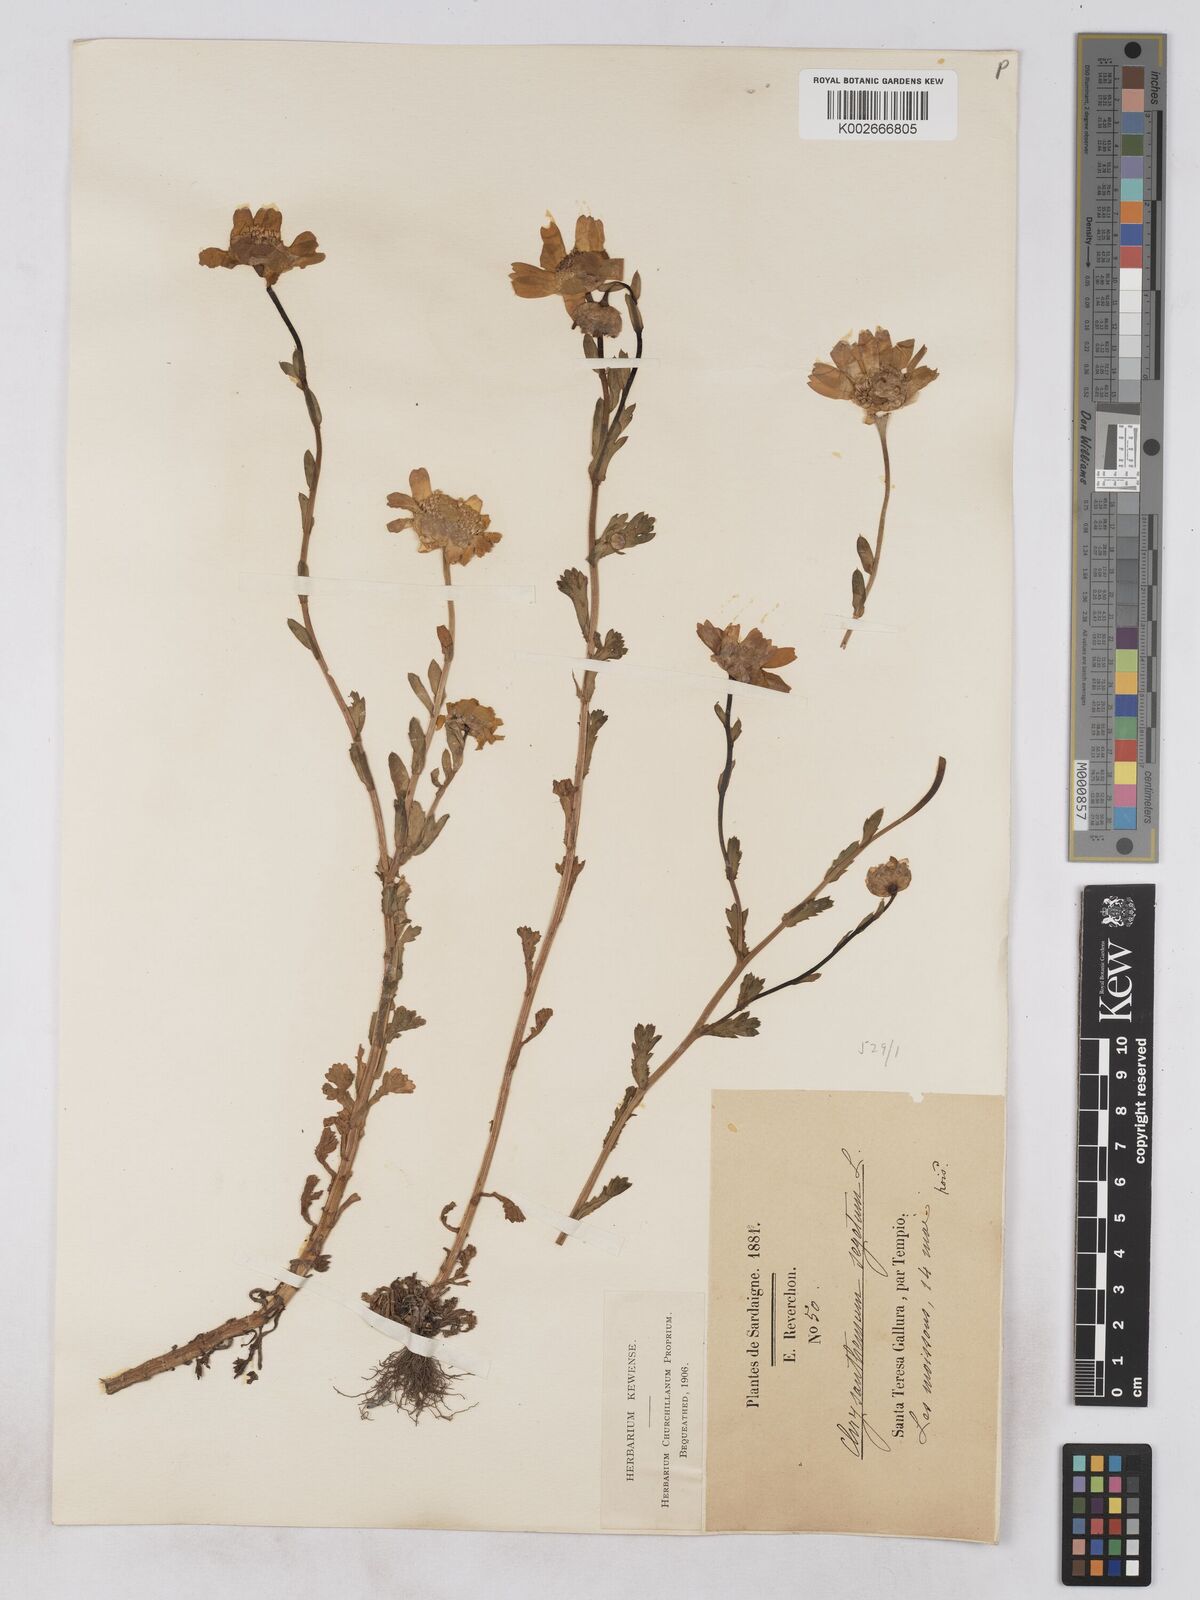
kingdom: Plantae
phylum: Tracheophyta
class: Magnoliopsida
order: Asterales
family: Asteraceae
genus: Glebionis
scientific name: Glebionis segetum
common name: Corndaisy
